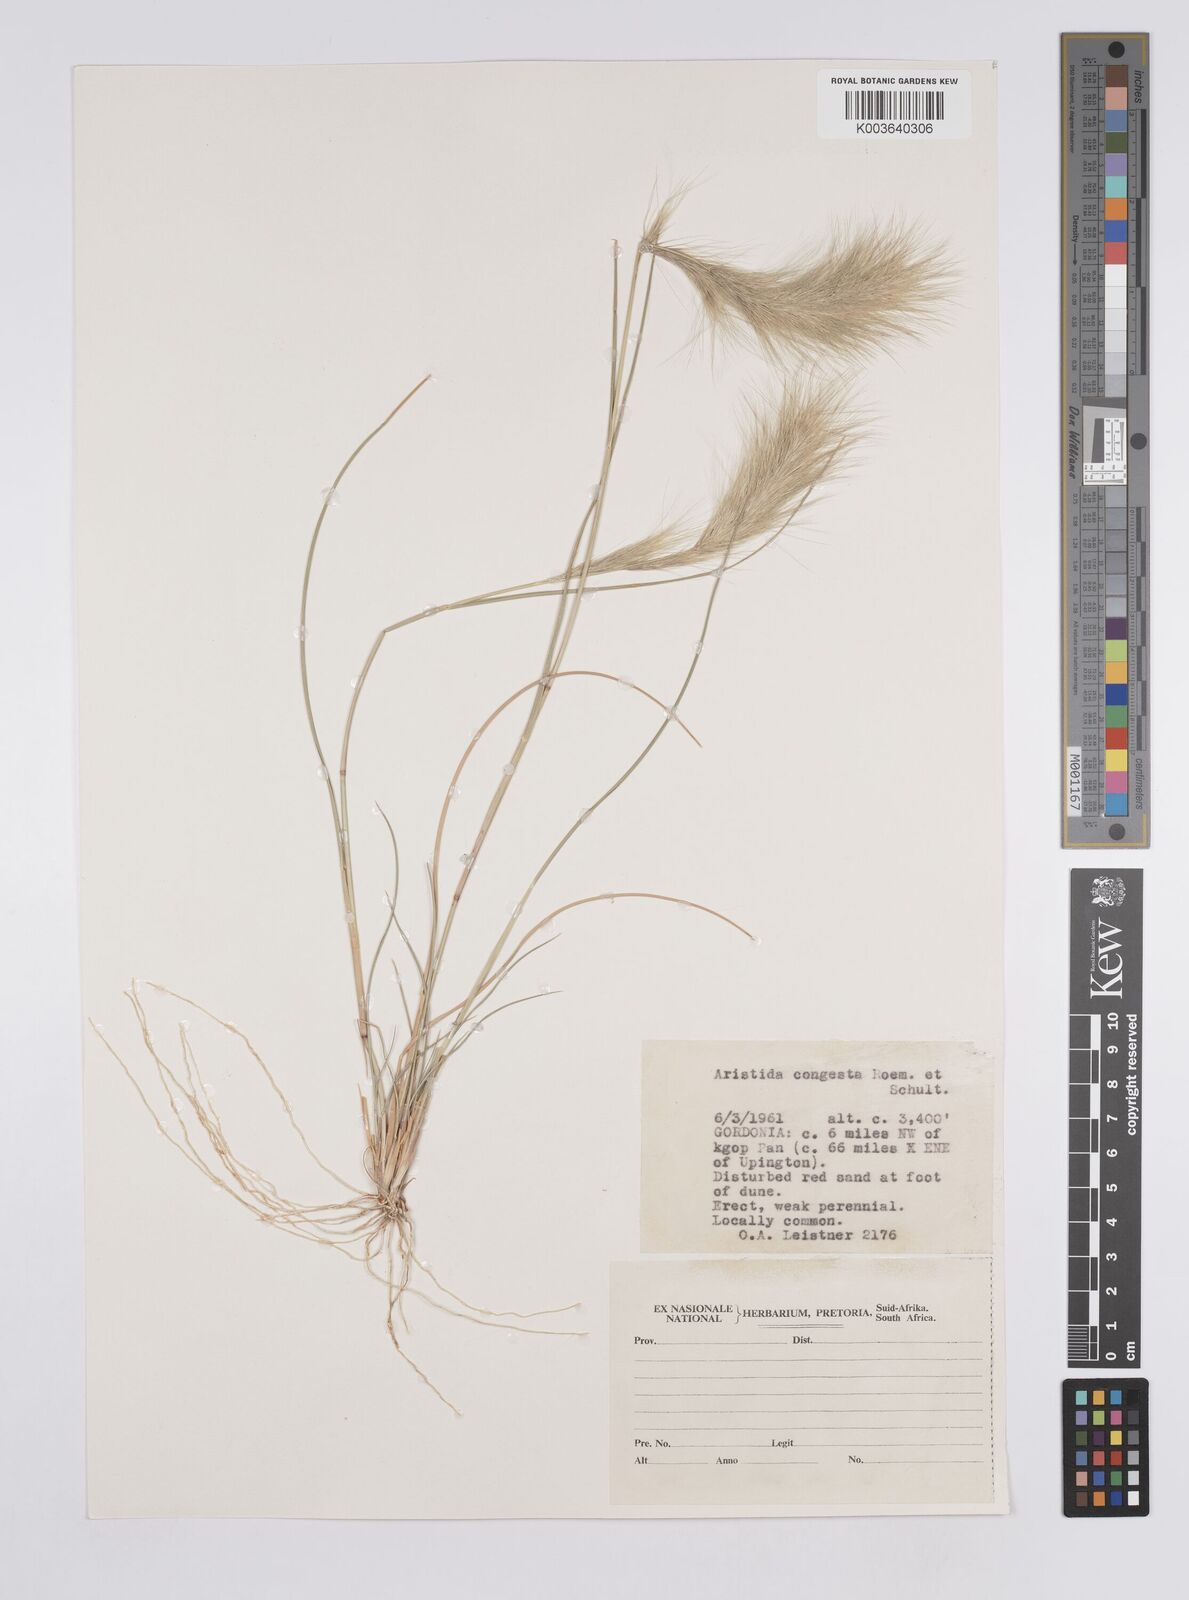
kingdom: Plantae
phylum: Tracheophyta
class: Liliopsida
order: Poales
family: Poaceae
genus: Aristida
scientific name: Aristida congesta
